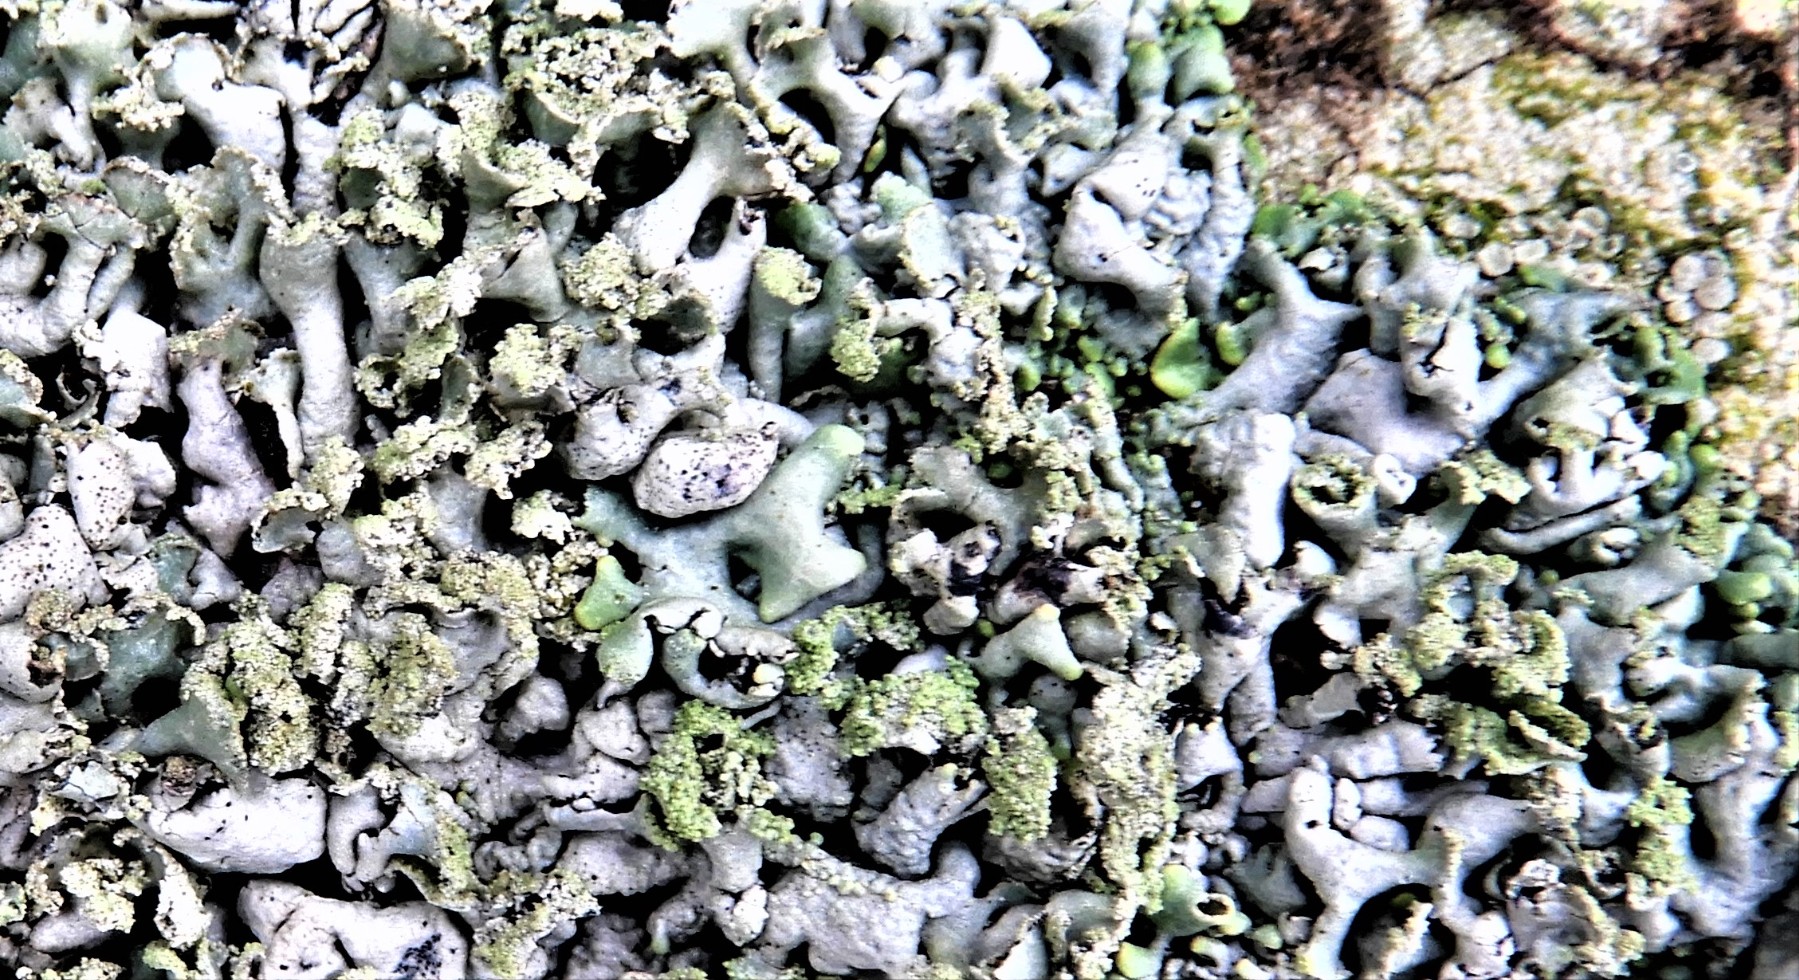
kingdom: Fungi
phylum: Ascomycota
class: Lecanoromycetes
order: Lecanorales
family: Parmeliaceae
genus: Hypogymnia
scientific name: Hypogymnia physodes
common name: almindelig kvistlav
